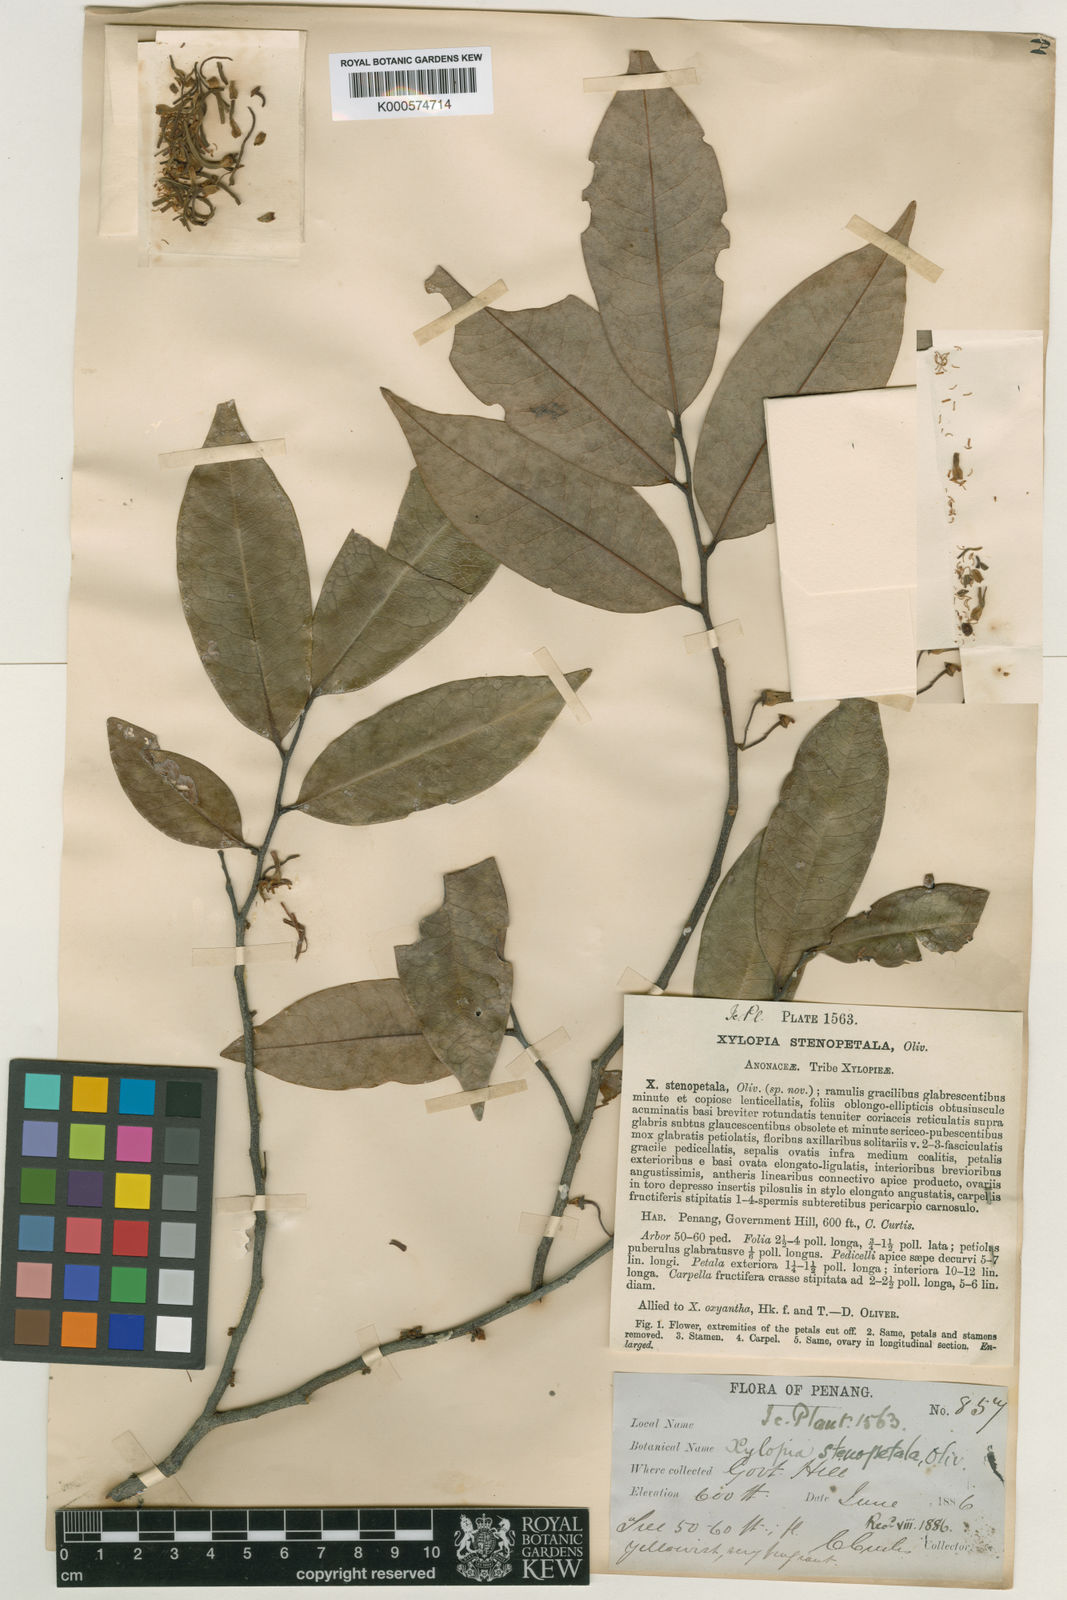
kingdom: Plantae
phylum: Tracheophyta
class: Magnoliopsida
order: Magnoliales
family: Annonaceae
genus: Xylopia
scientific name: Xylopia stenopetala
